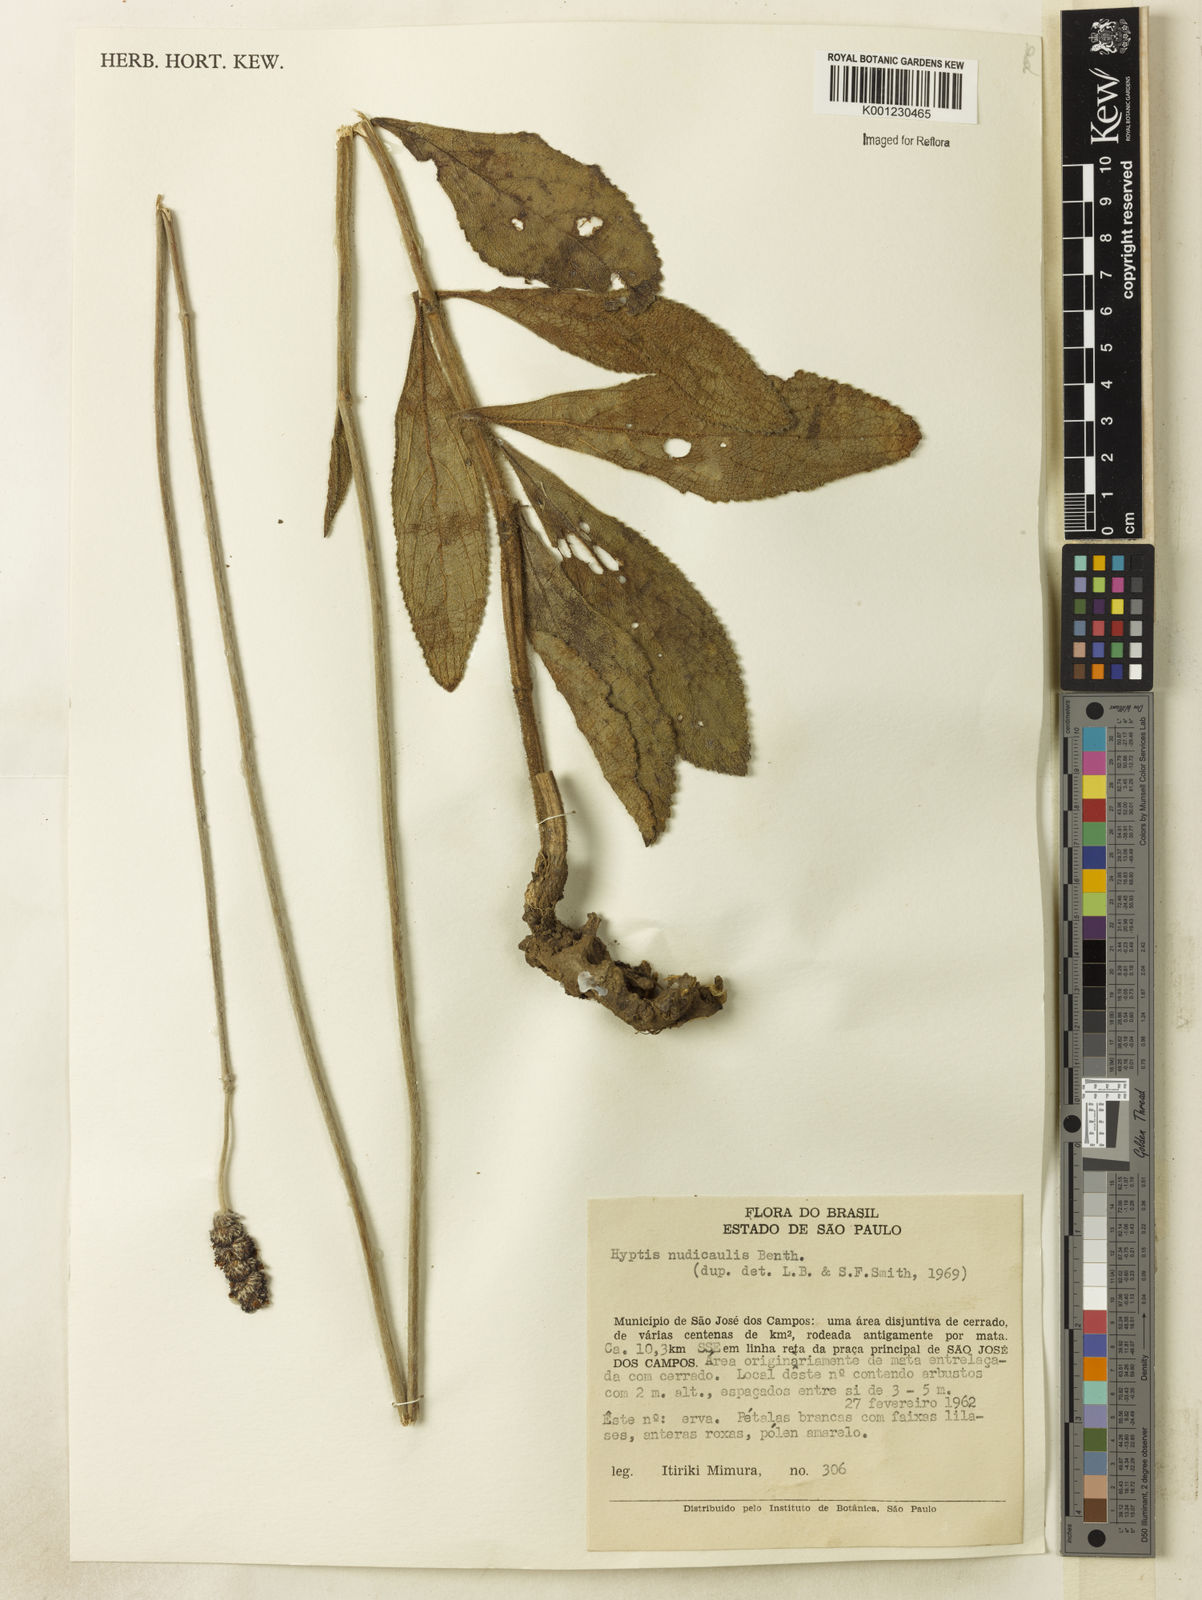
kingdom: Plantae
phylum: Tracheophyta
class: Magnoliopsida
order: Lamiales
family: Lamiaceae
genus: Hyptis
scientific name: Hyptis nudicaulis
